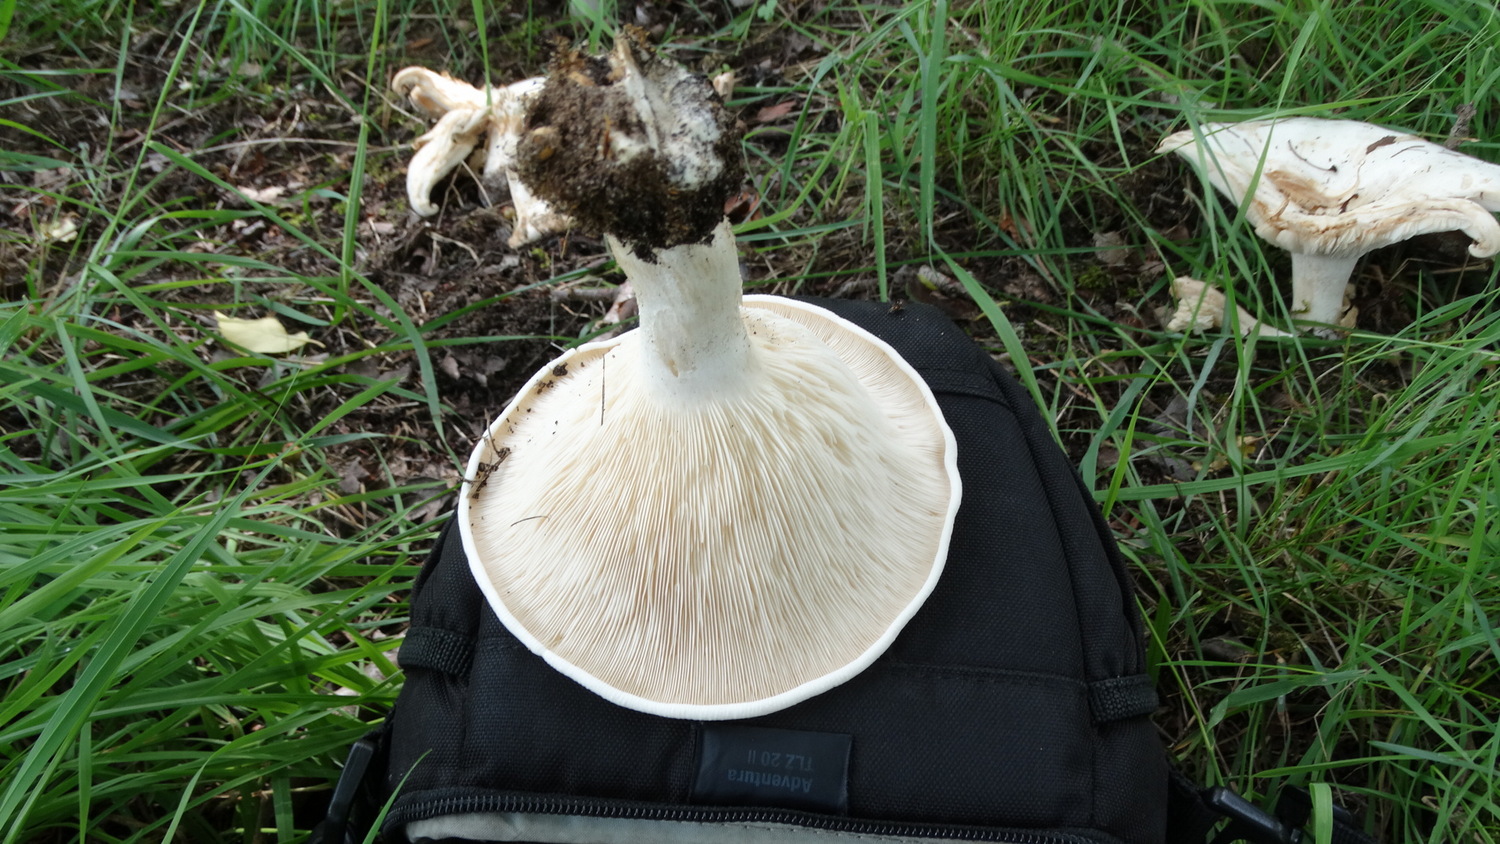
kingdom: Fungi
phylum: Basidiomycota
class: Agaricomycetes
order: Agaricales
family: Tricholomataceae
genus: Aspropaxillus
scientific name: Aspropaxillus giganteus
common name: kæmpe-tragtridderhat
